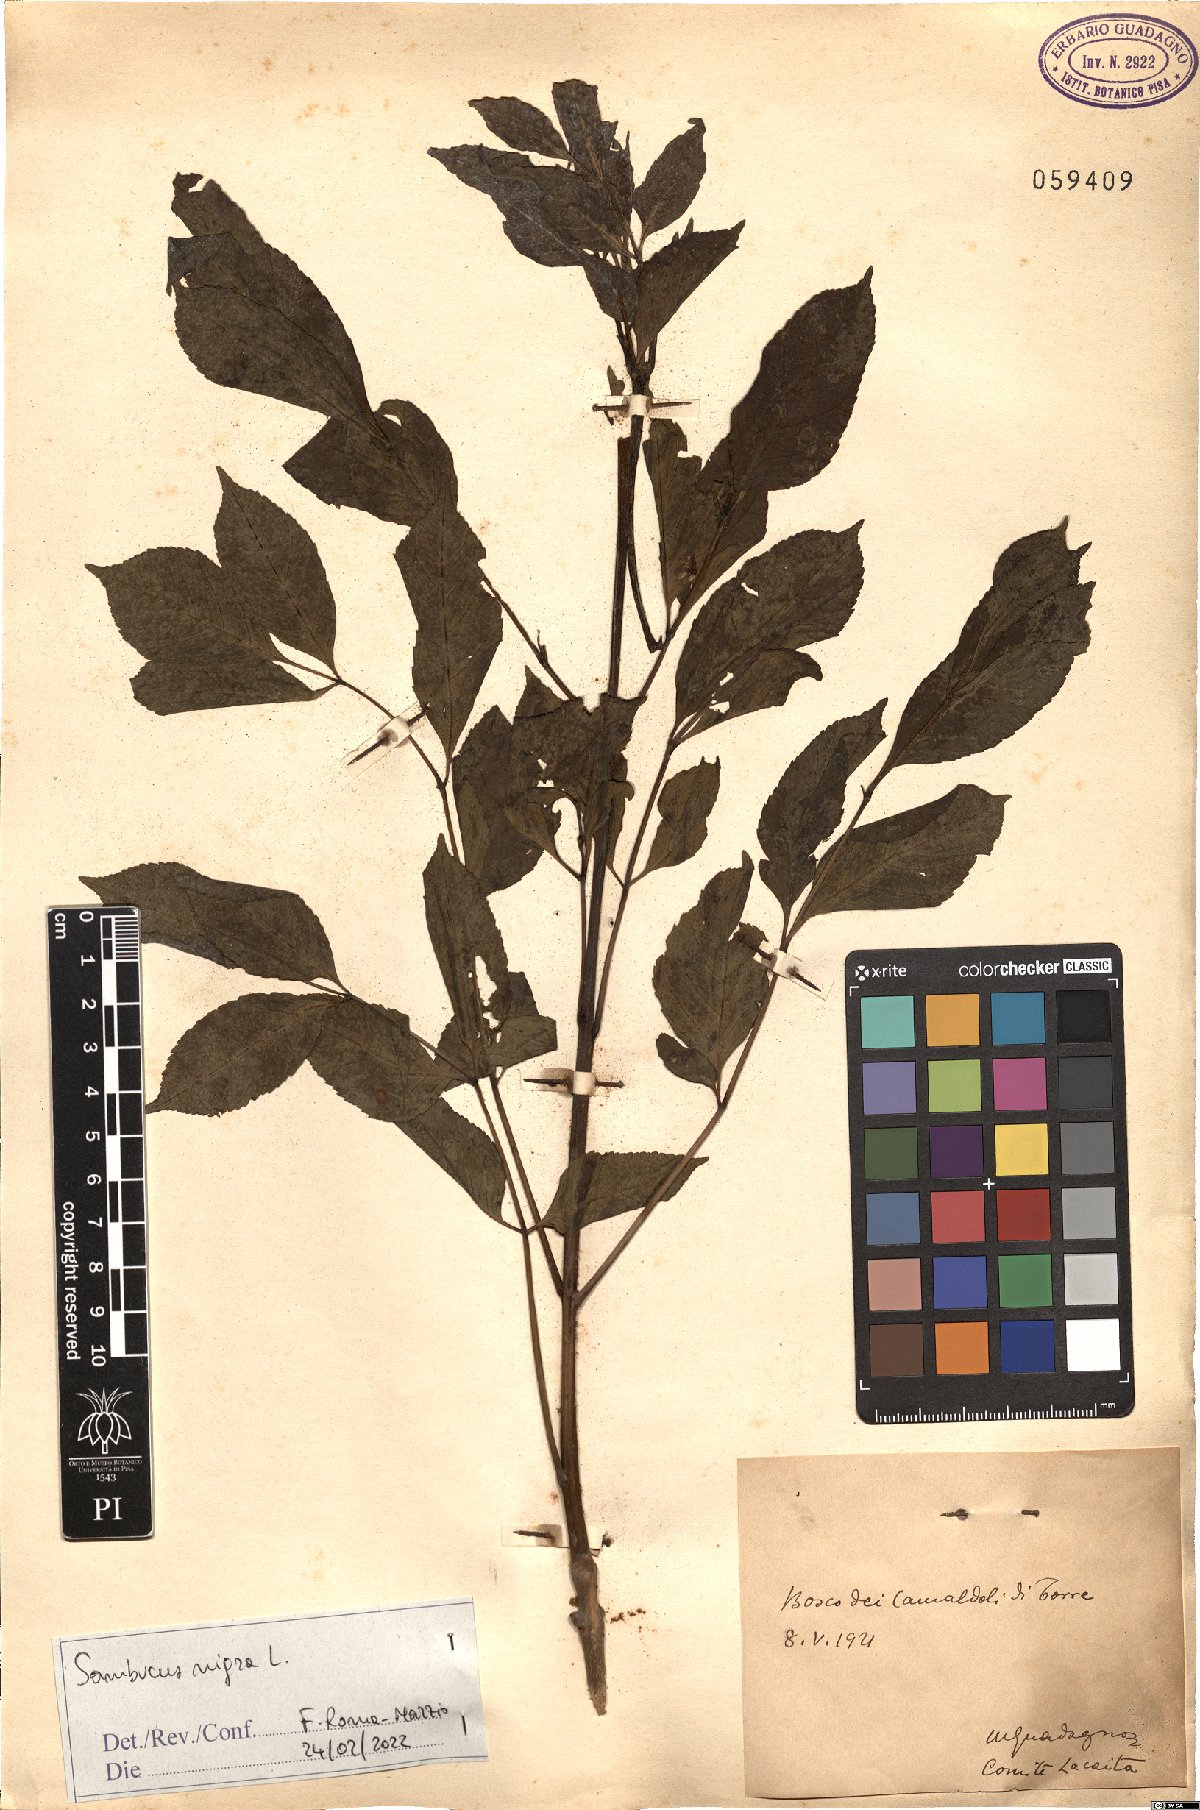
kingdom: Plantae
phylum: Tracheophyta
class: Magnoliopsida
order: Dipsacales
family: Viburnaceae
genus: Sambucus
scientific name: Sambucus nigra
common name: Elder
